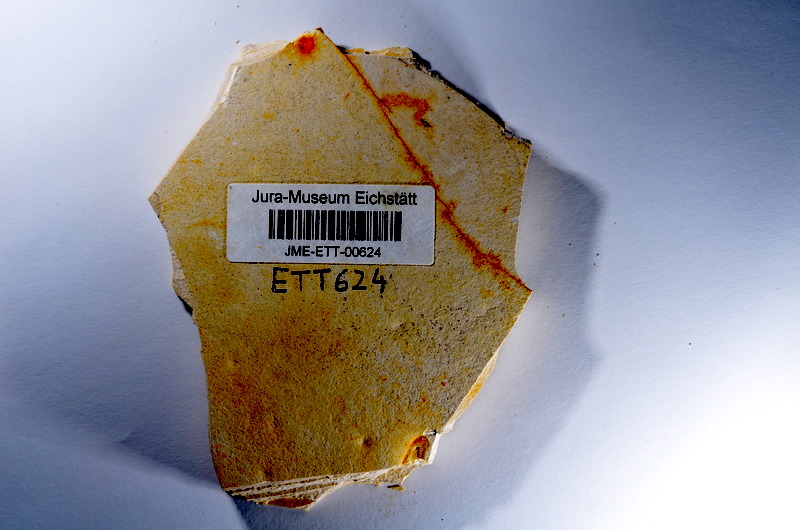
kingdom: Animalia
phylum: Chordata
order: Salmoniformes
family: Orthogonikleithridae
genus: Orthogonikleithrus
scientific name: Orthogonikleithrus hoelli
